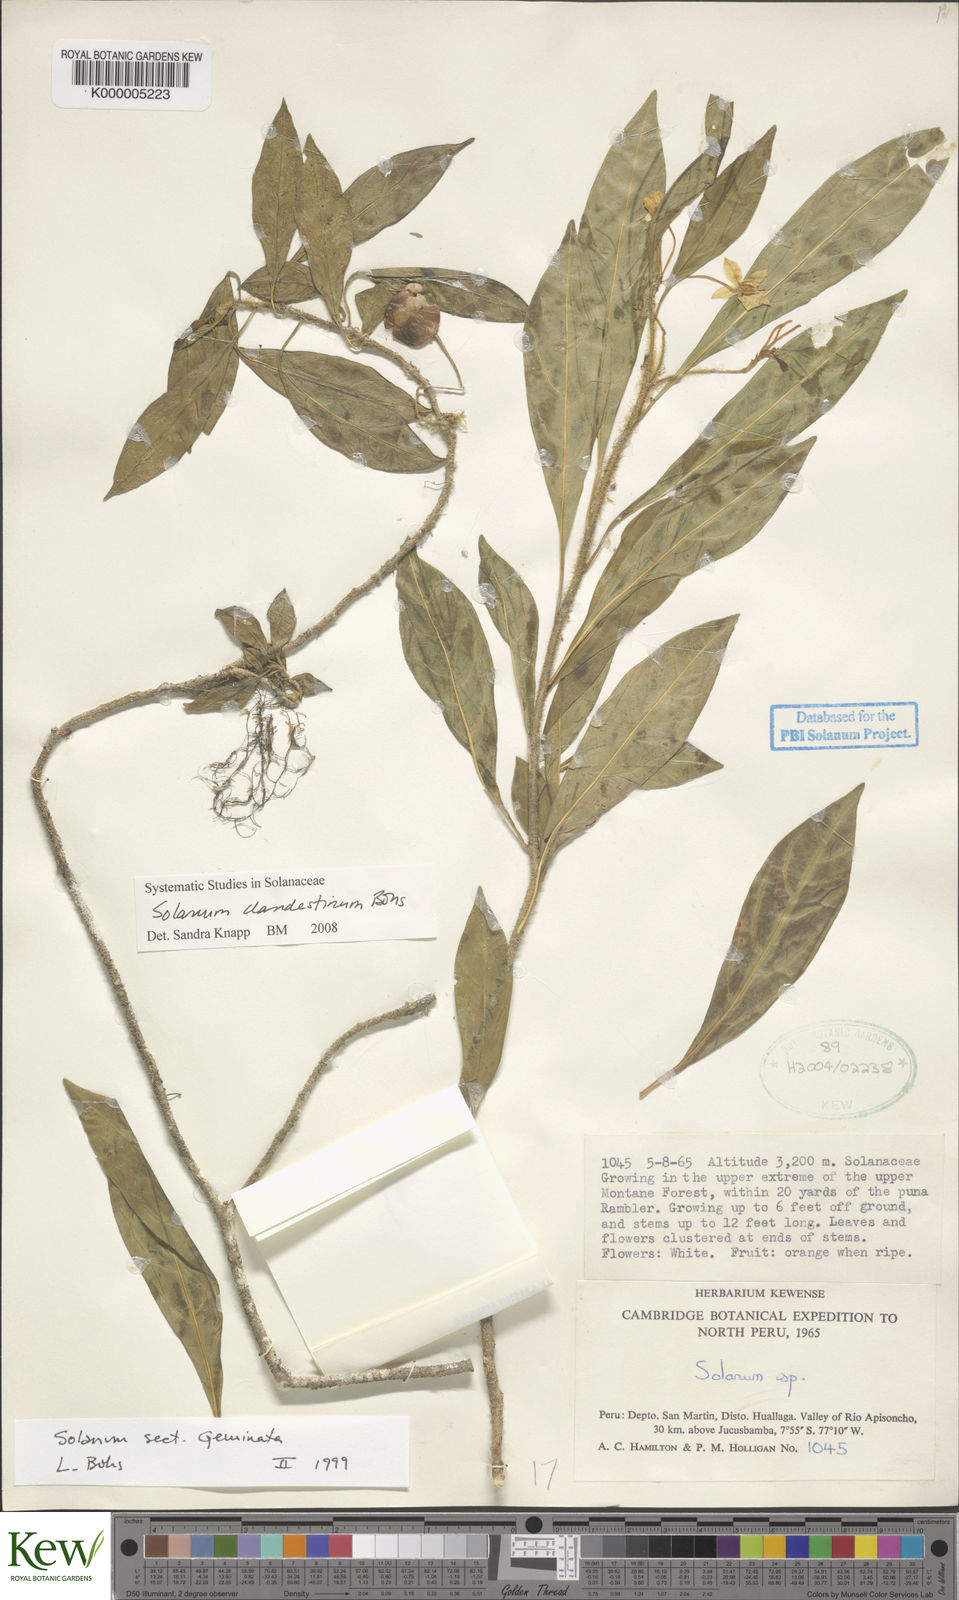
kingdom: Plantae
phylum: Tracheophyta
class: Magnoliopsida
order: Solanales
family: Solanaceae
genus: Solanum
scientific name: Solanum clandestinum
